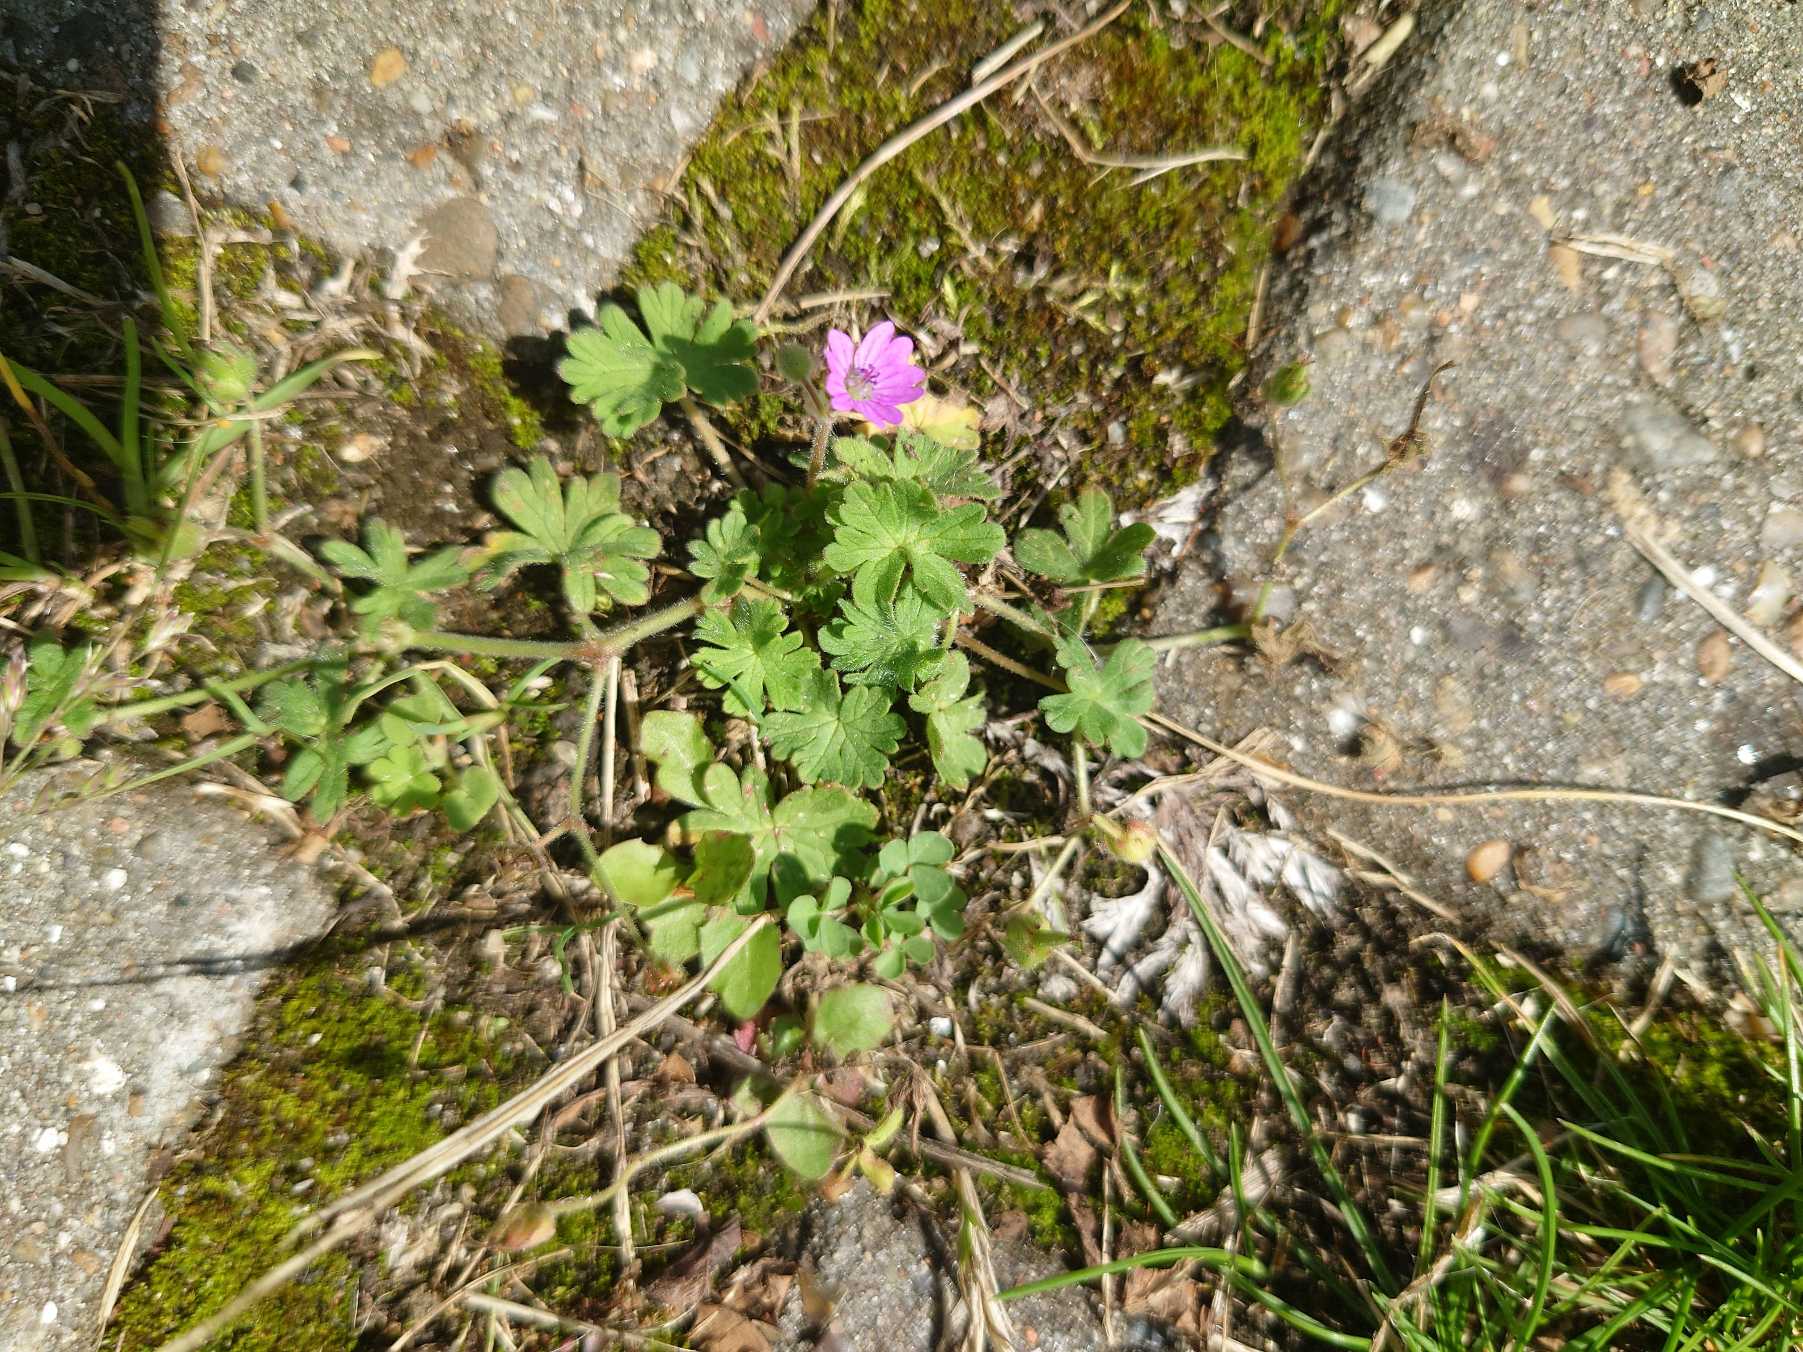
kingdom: Plantae
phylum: Tracheophyta
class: Magnoliopsida
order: Geraniales
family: Geraniaceae
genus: Geranium
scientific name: Geranium molle
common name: Blød storkenæb
